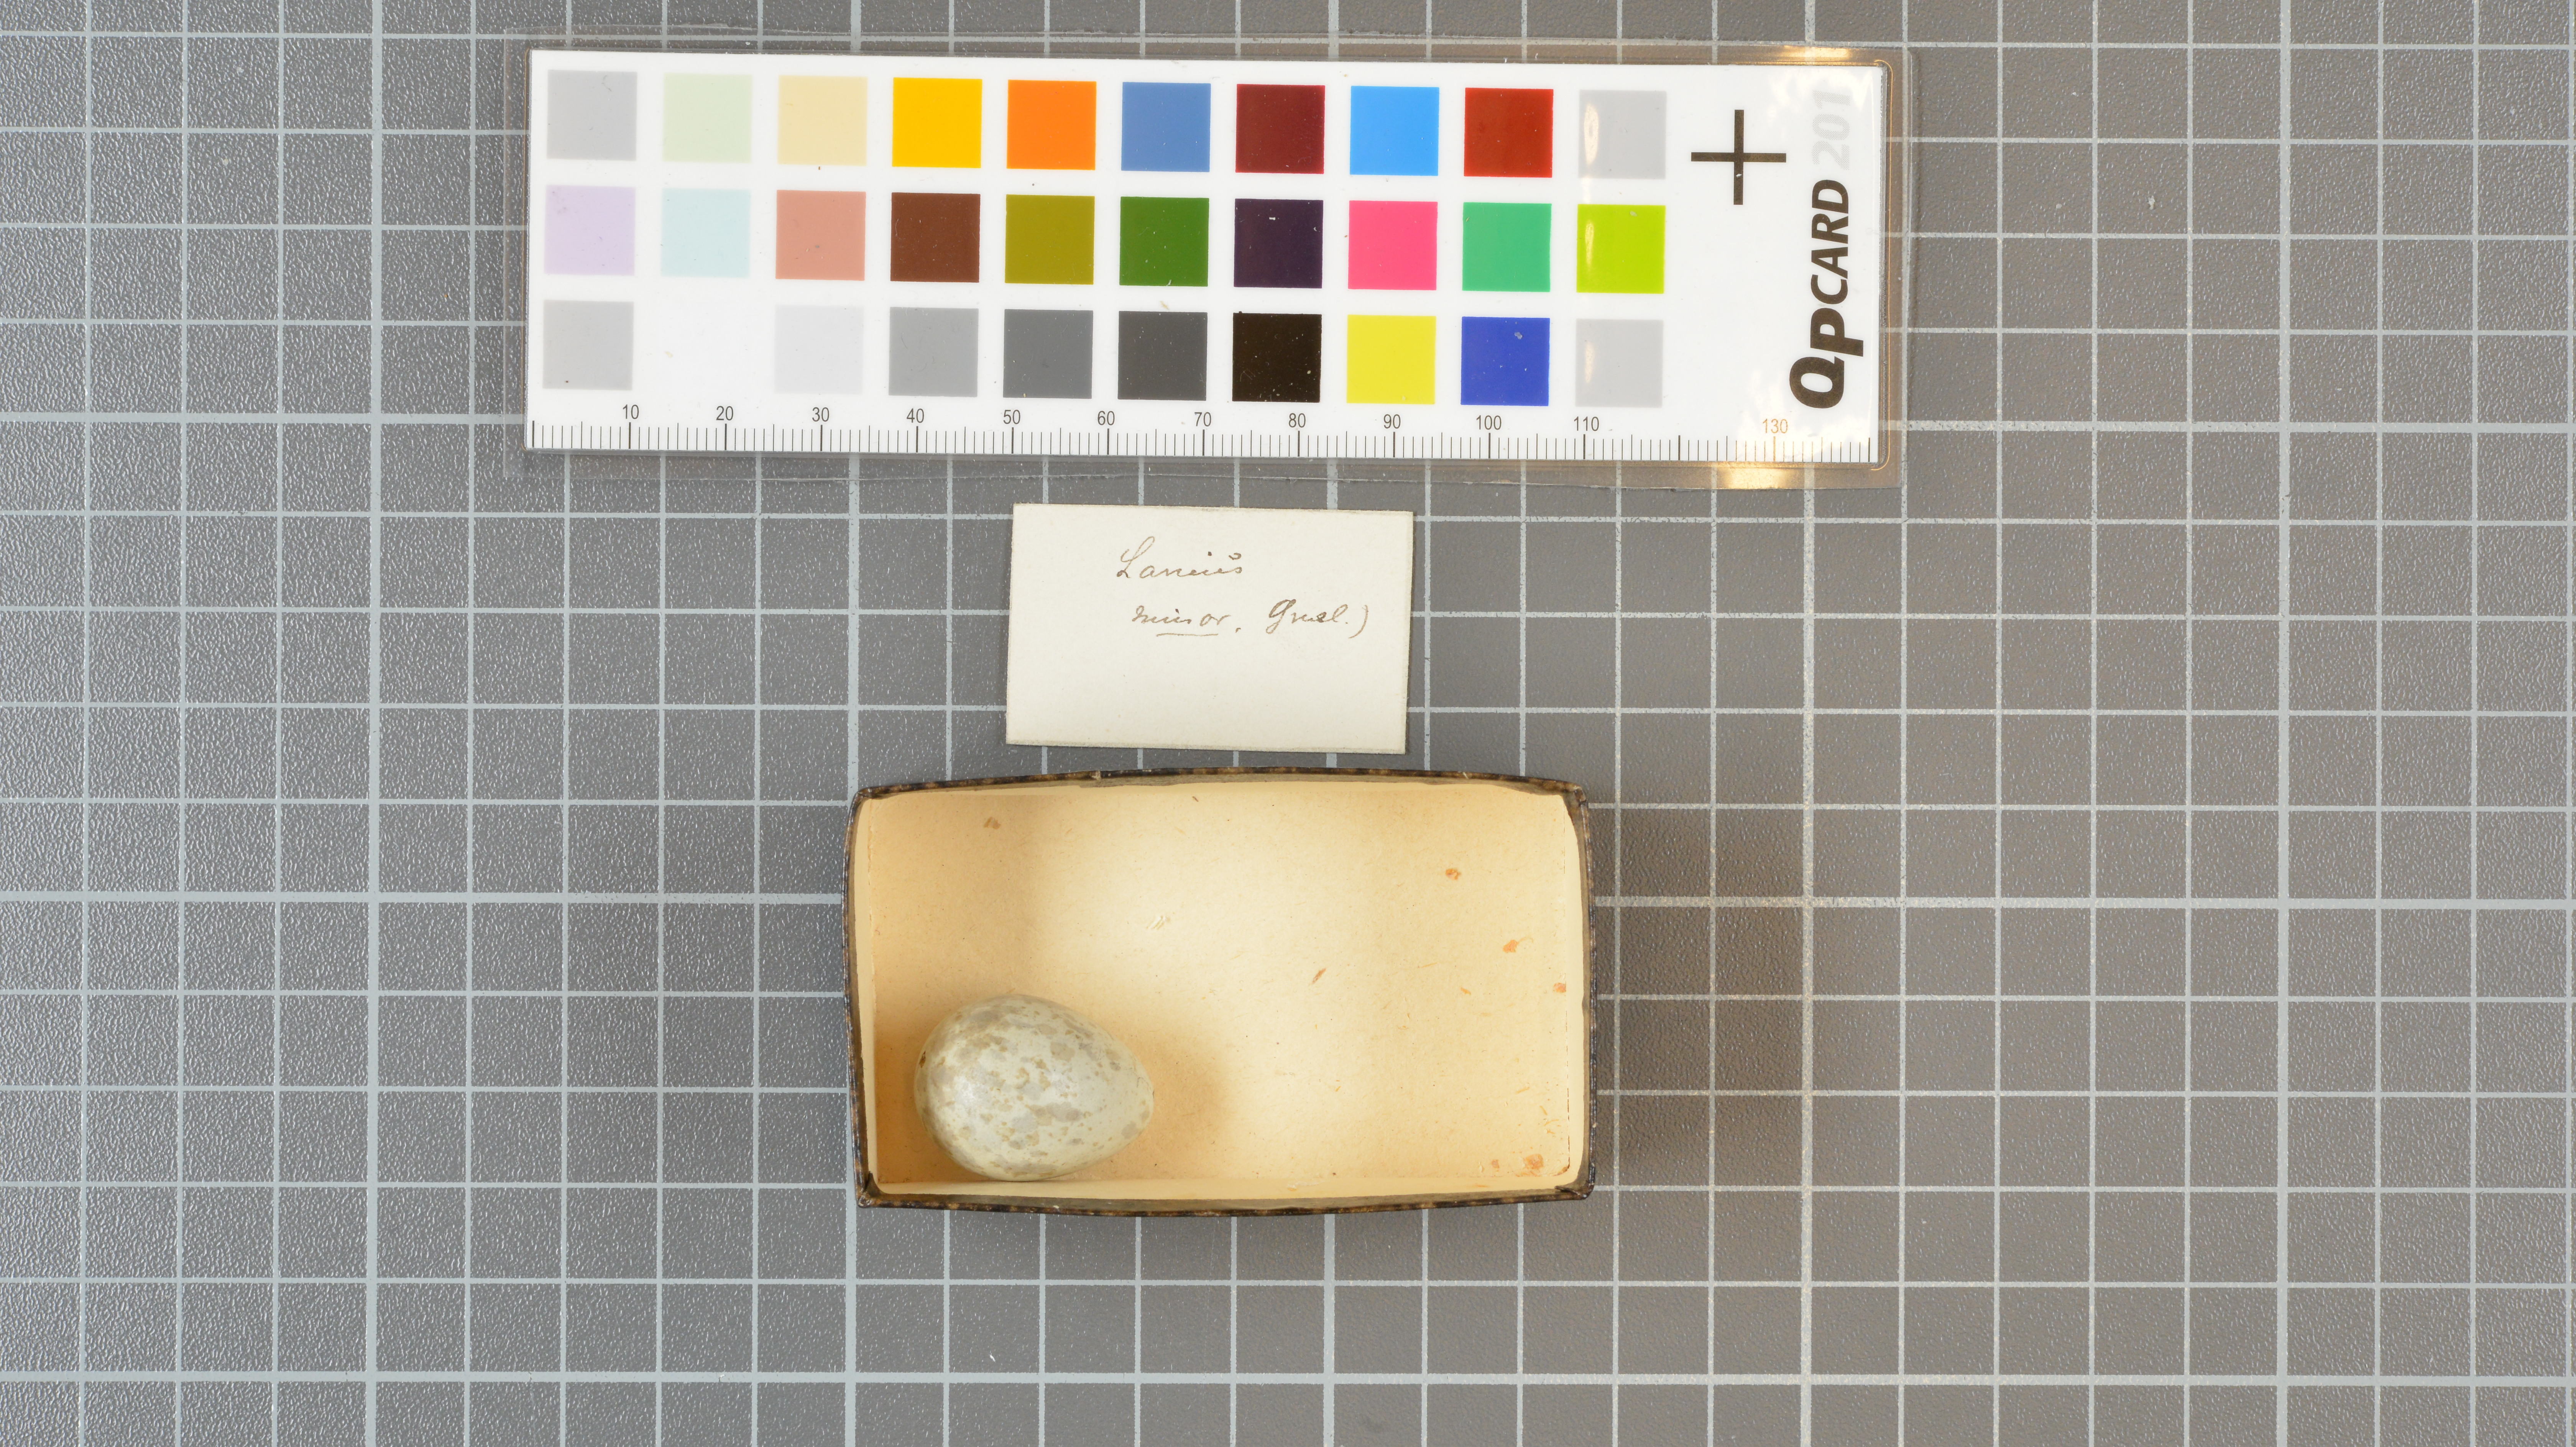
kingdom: Animalia
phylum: Chordata
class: Aves
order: Passeriformes
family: Laniidae
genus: Lanius
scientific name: Lanius minor
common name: Lesser grey shrike
